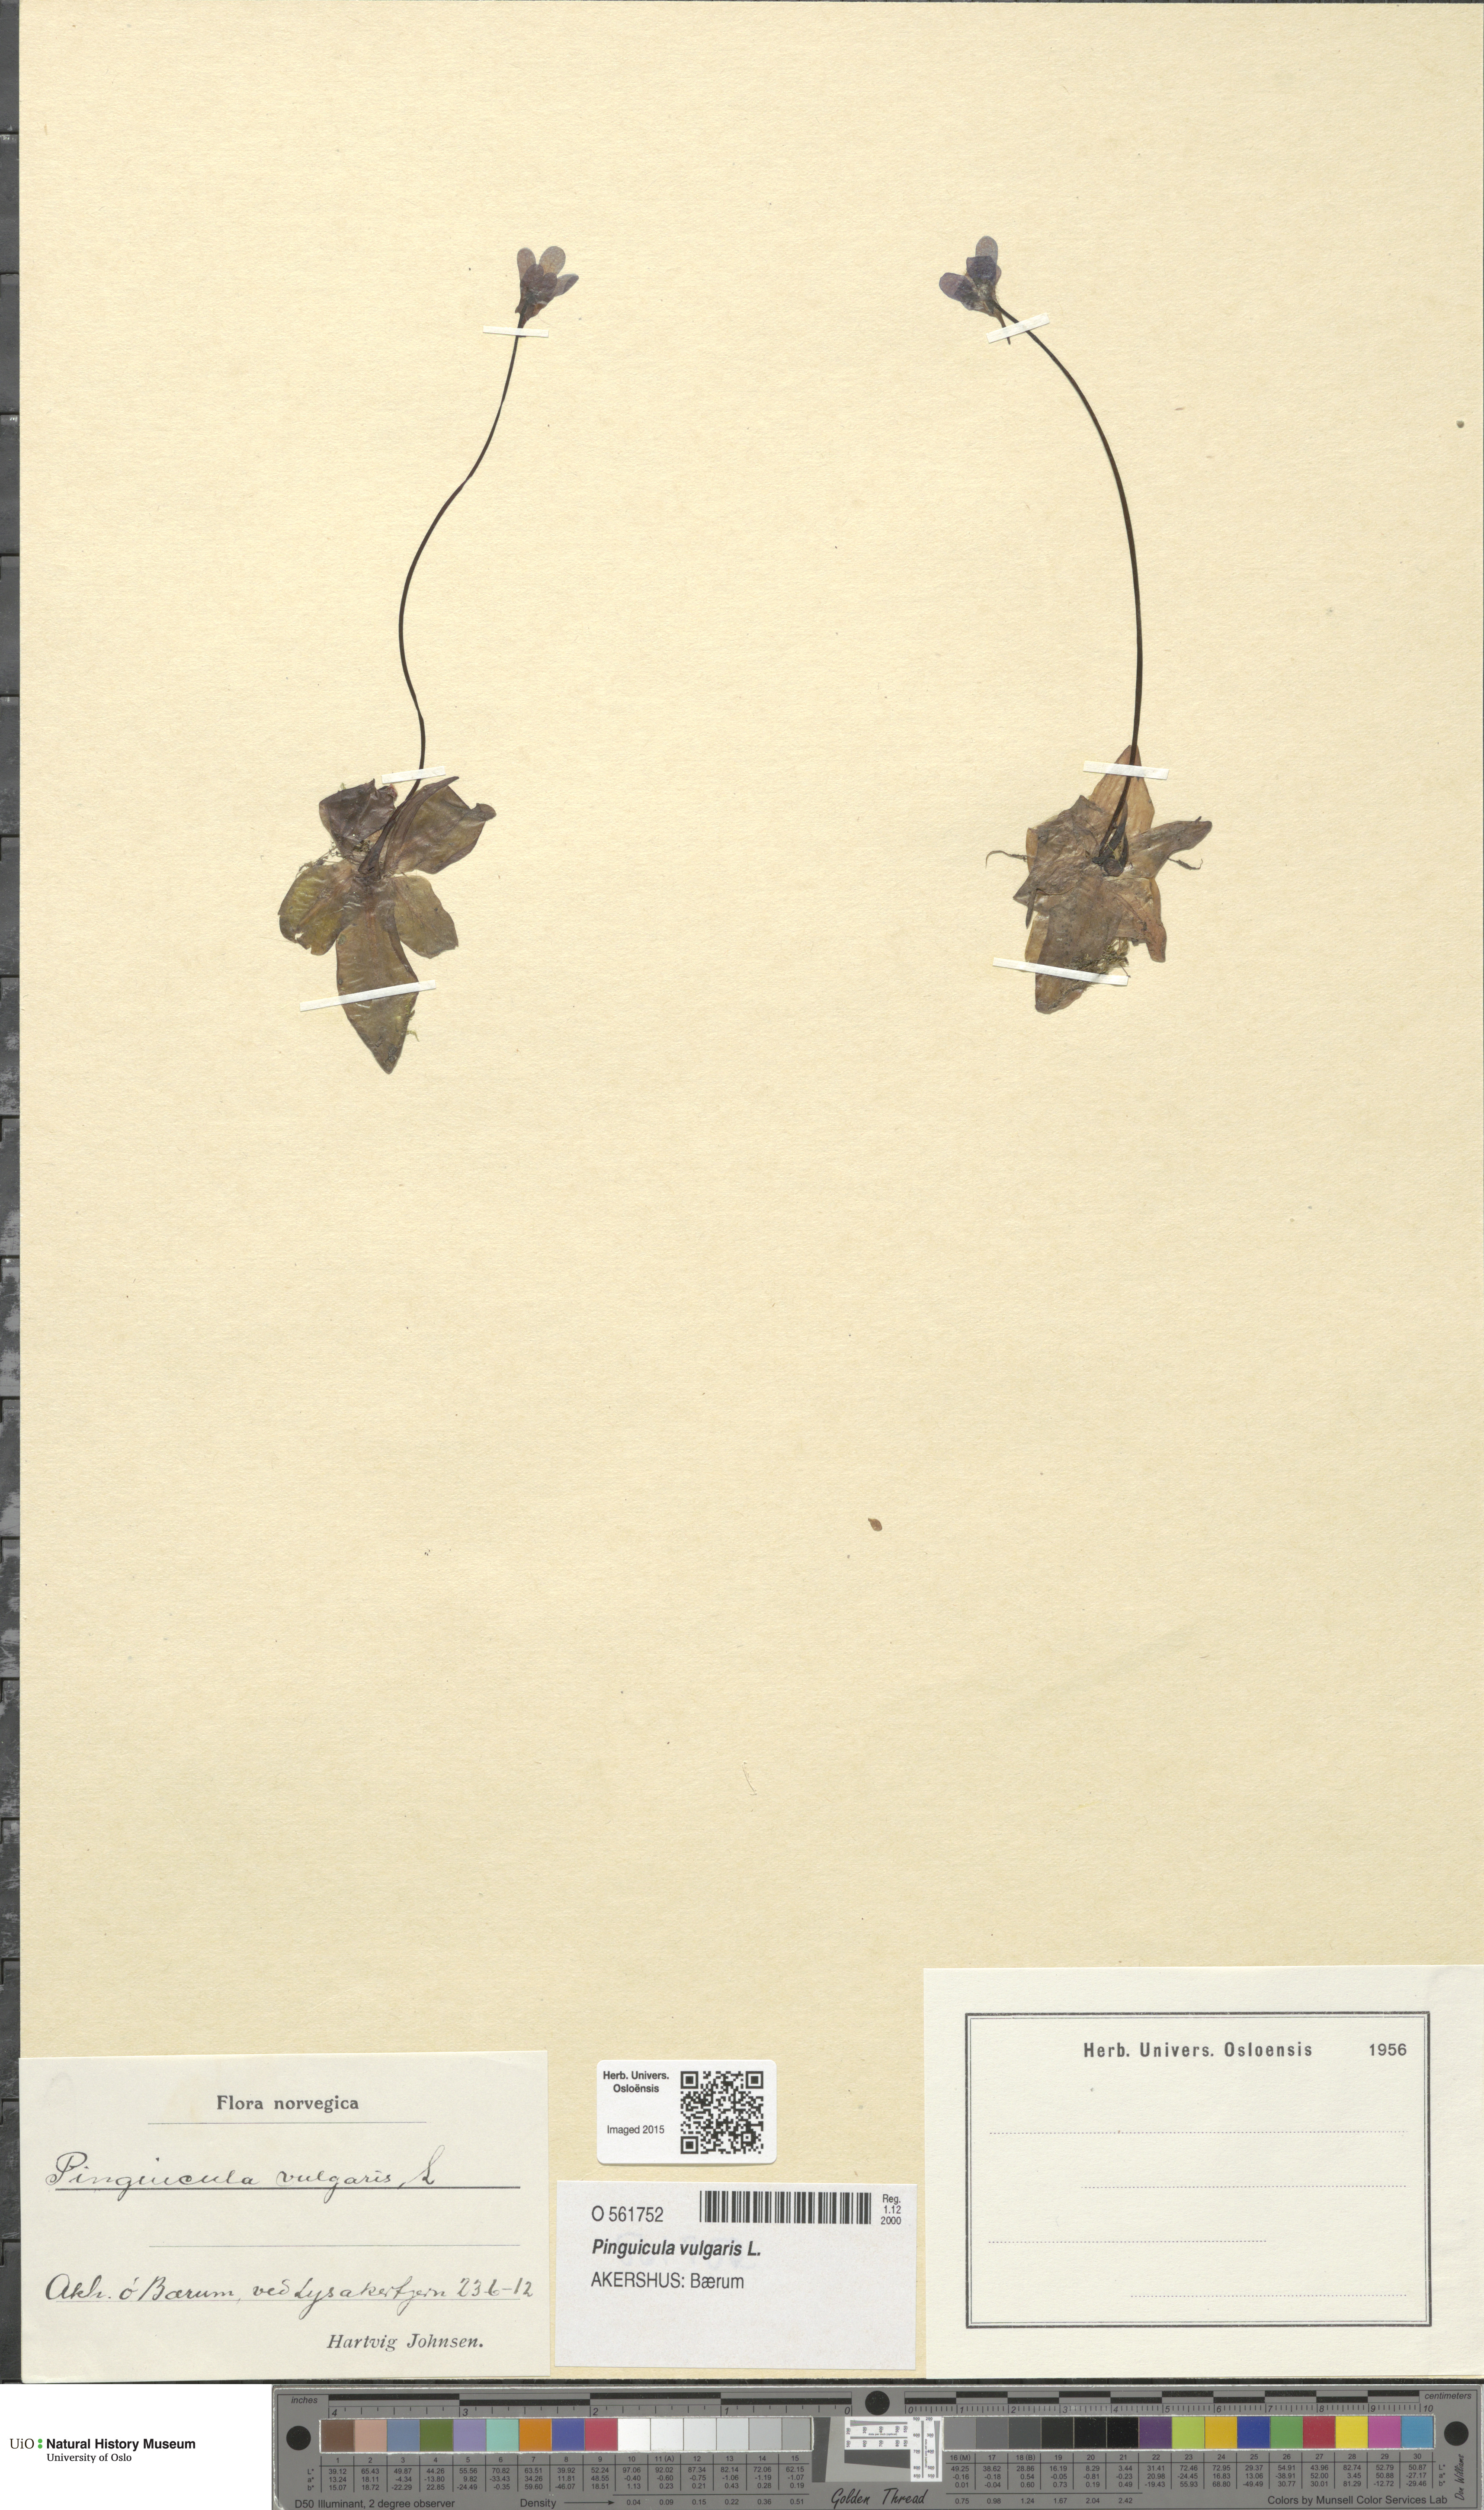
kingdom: Plantae
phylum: Tracheophyta
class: Magnoliopsida
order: Lamiales
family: Lentibulariaceae
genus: Pinguicula
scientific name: Pinguicula vulgaris
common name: Common butterwort
